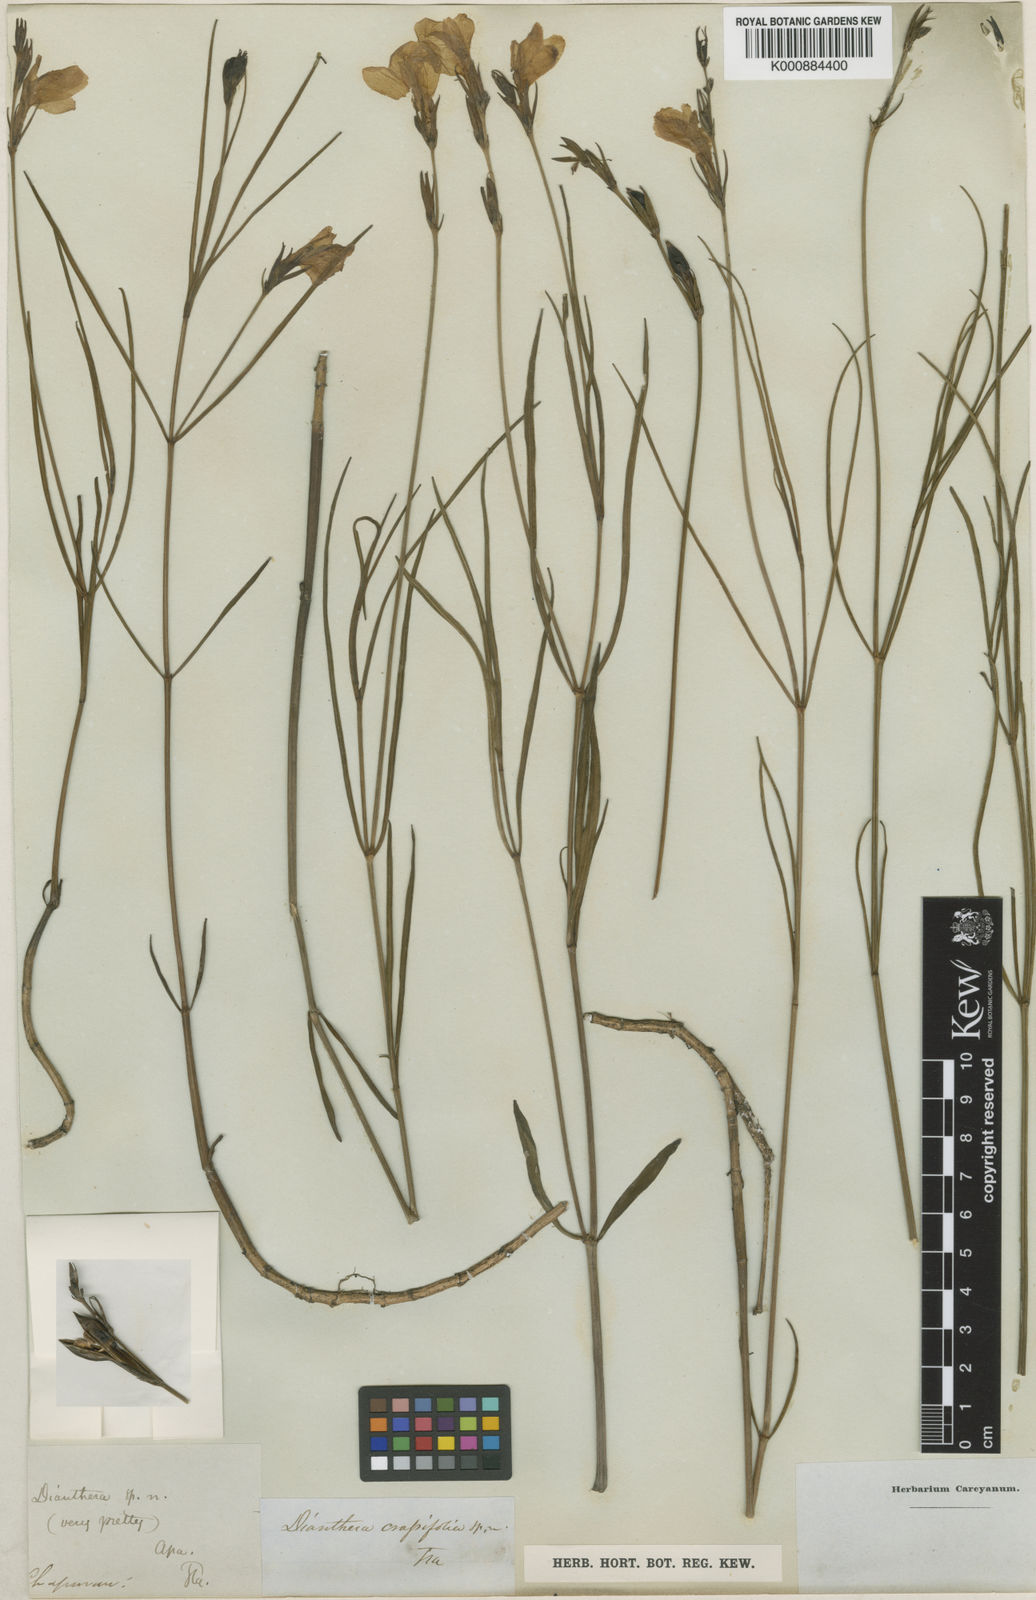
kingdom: Plantae
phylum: Tracheophyta
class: Magnoliopsida
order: Lamiales
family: Acanthaceae
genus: Dianthera
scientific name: Dianthera crassifolia
